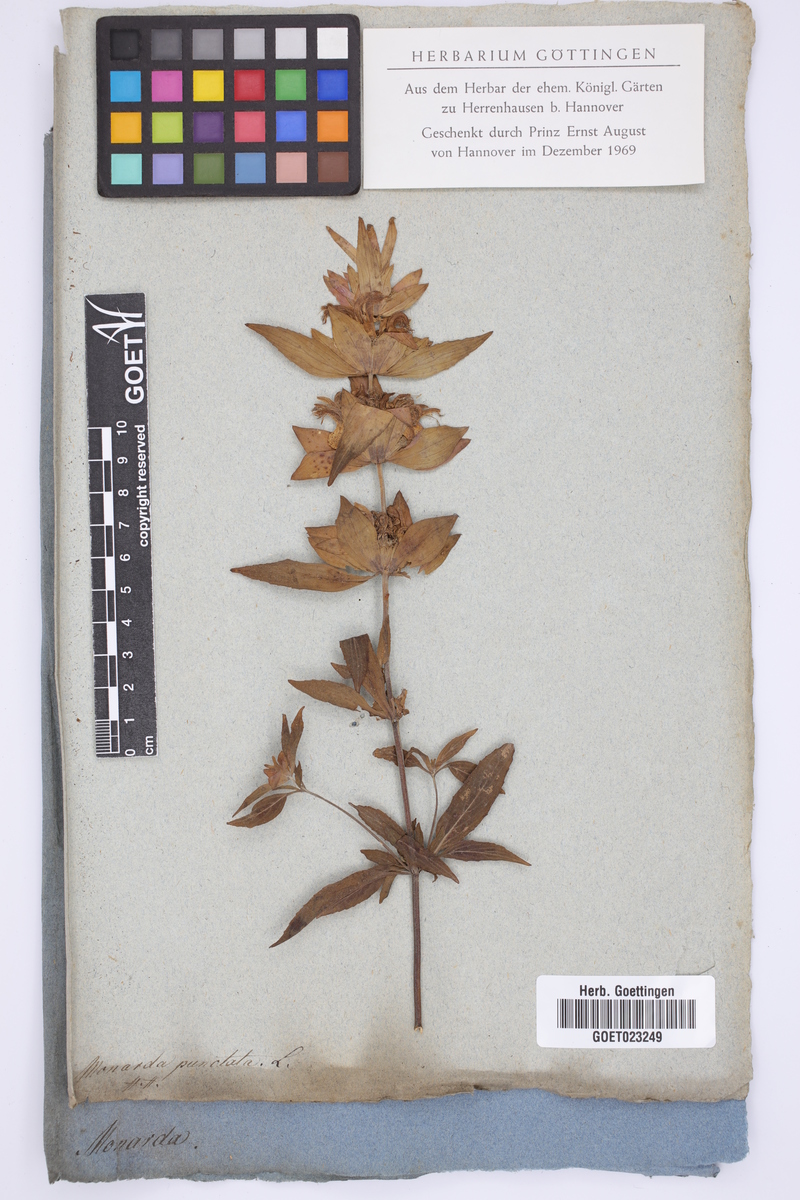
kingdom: Plantae
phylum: Tracheophyta
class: Magnoliopsida
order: Lamiales
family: Lamiaceae
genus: Monarda
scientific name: Monarda punctata
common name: Dotted monarda
